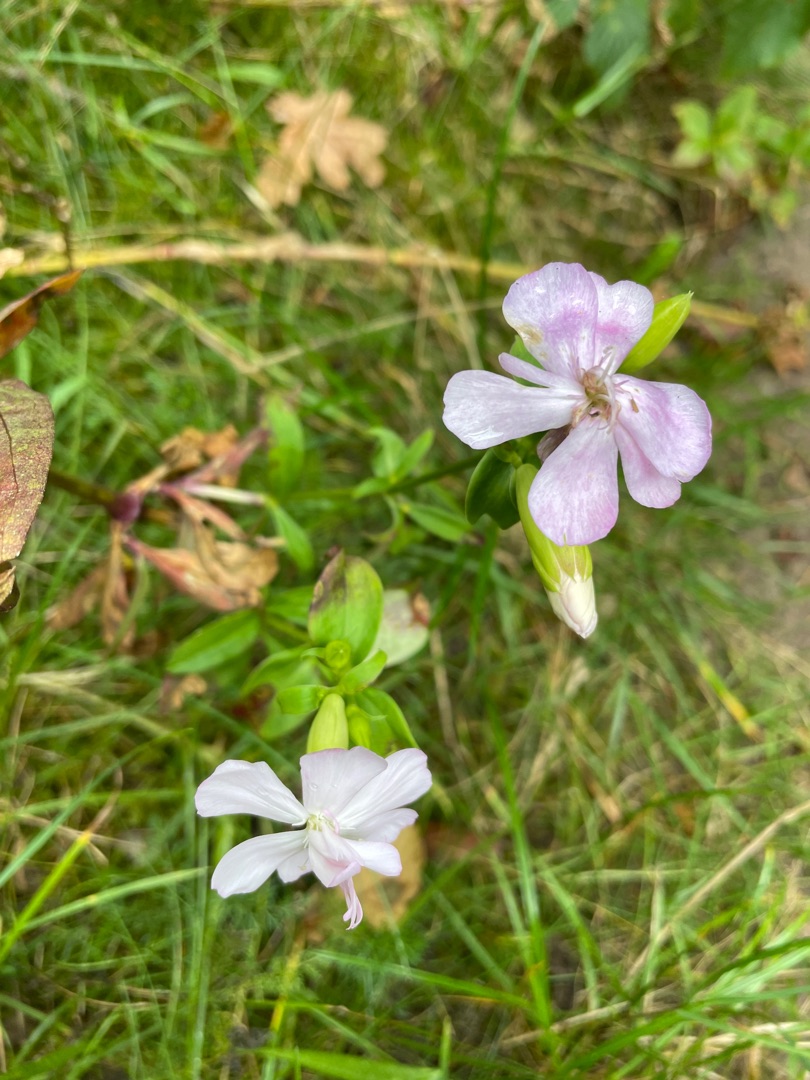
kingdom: Plantae
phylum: Tracheophyta
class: Magnoliopsida
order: Caryophyllales
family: Caryophyllaceae
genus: Saponaria
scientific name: Saponaria officinalis
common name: Sæbeurt
